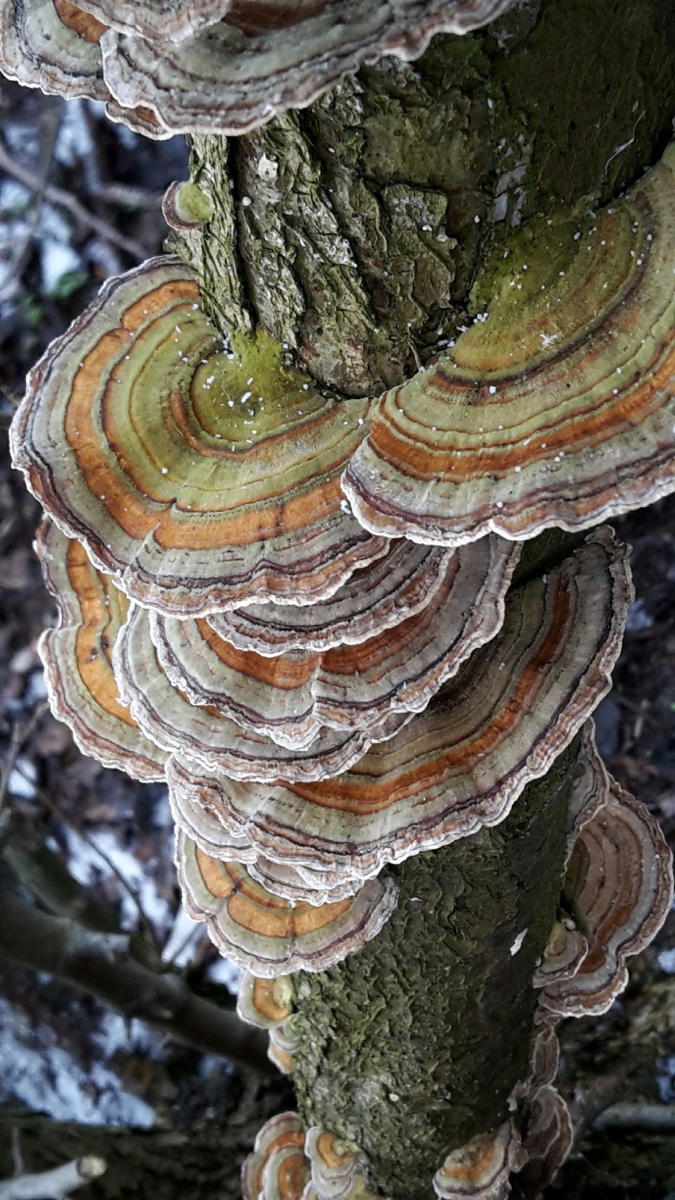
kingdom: Fungi
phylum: Basidiomycota
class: Agaricomycetes
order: Polyporales
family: Polyporaceae
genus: Trametes
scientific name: Trametes versicolor
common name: broget læderporesvamp
